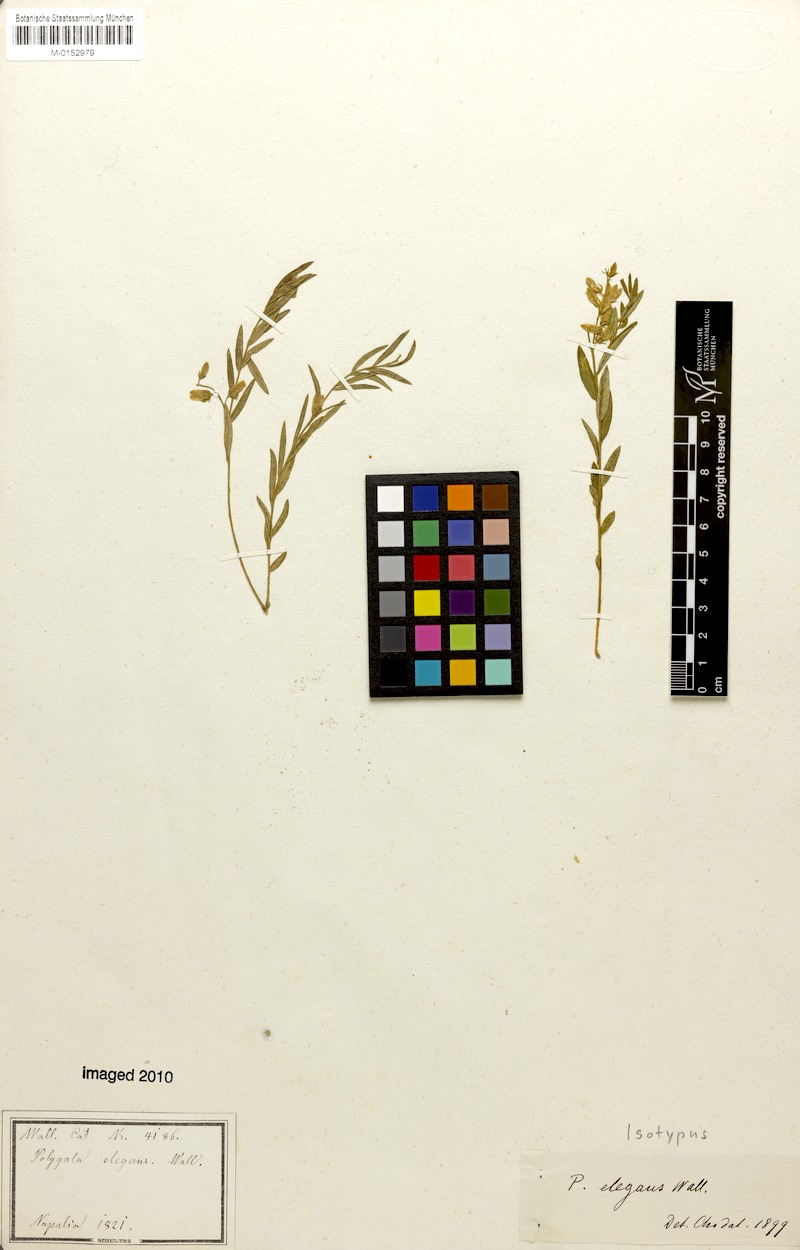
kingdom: Plantae
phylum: Tracheophyta
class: Magnoliopsida
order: Fabales
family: Polygalaceae
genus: Polygala
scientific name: Polygala elegans
